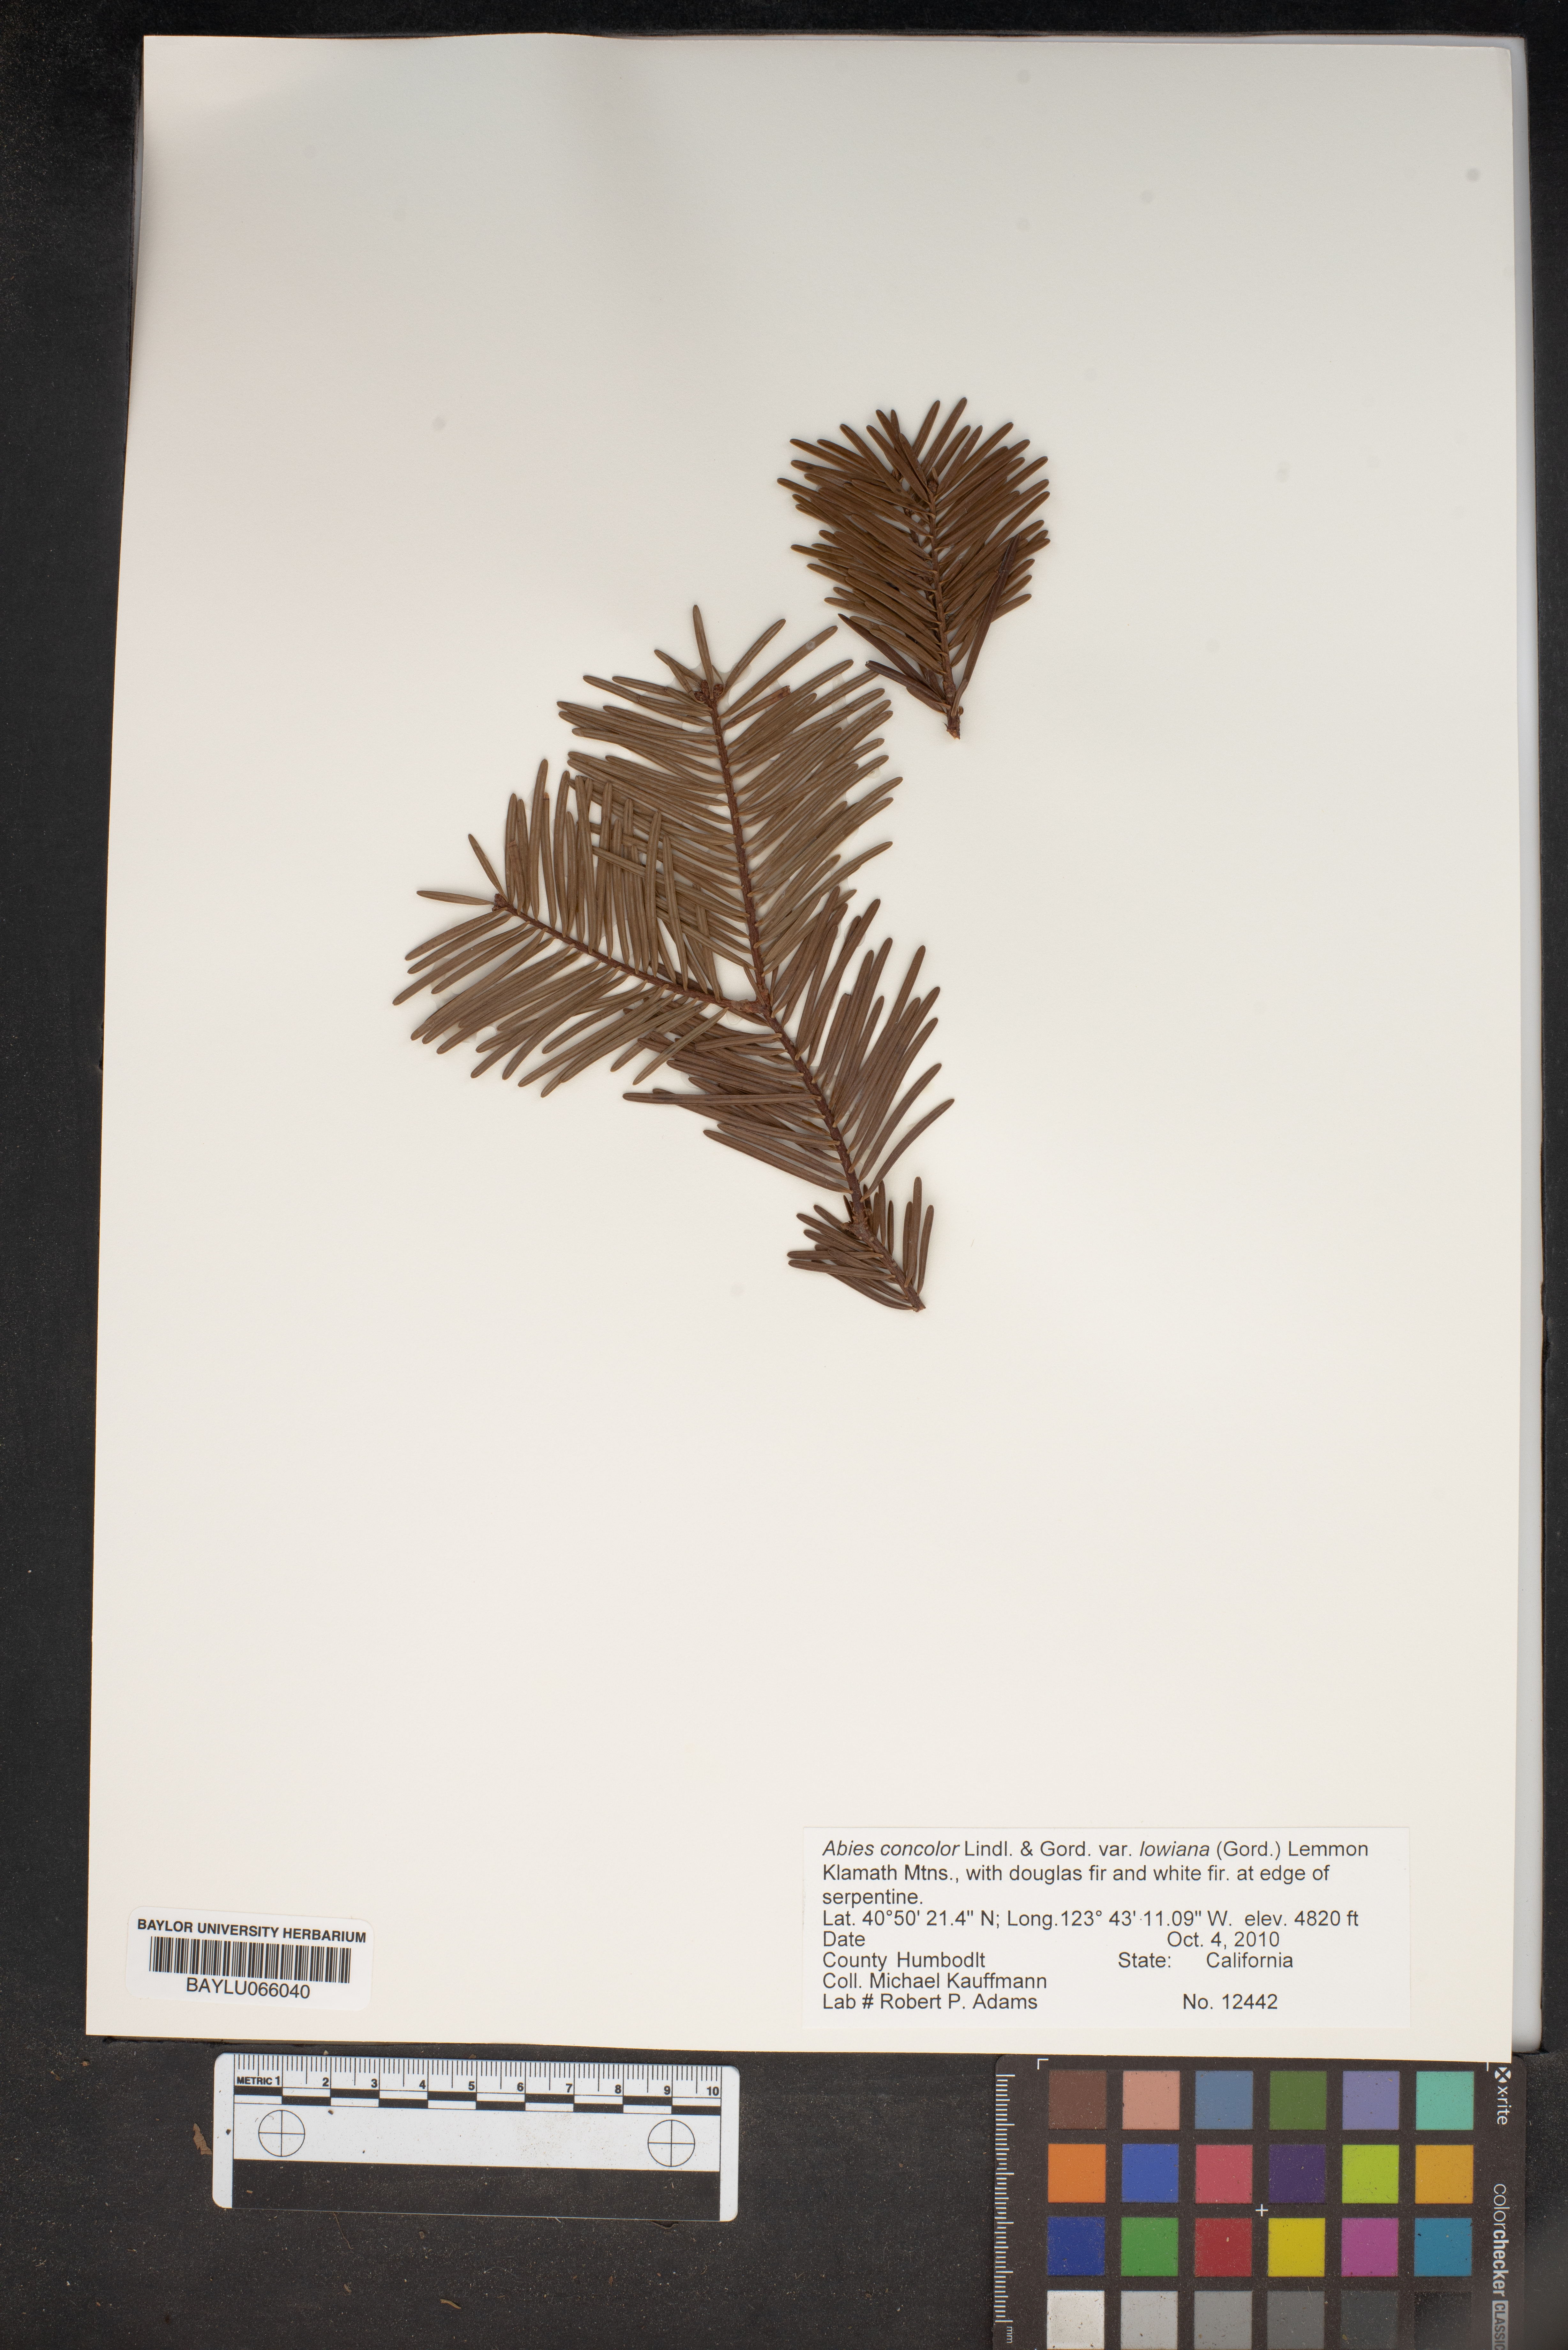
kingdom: Plantae
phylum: Tracheophyta
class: Pinopsida
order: Pinales
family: Pinaceae
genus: Abies
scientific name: Abies concolor
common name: Colorado fir
